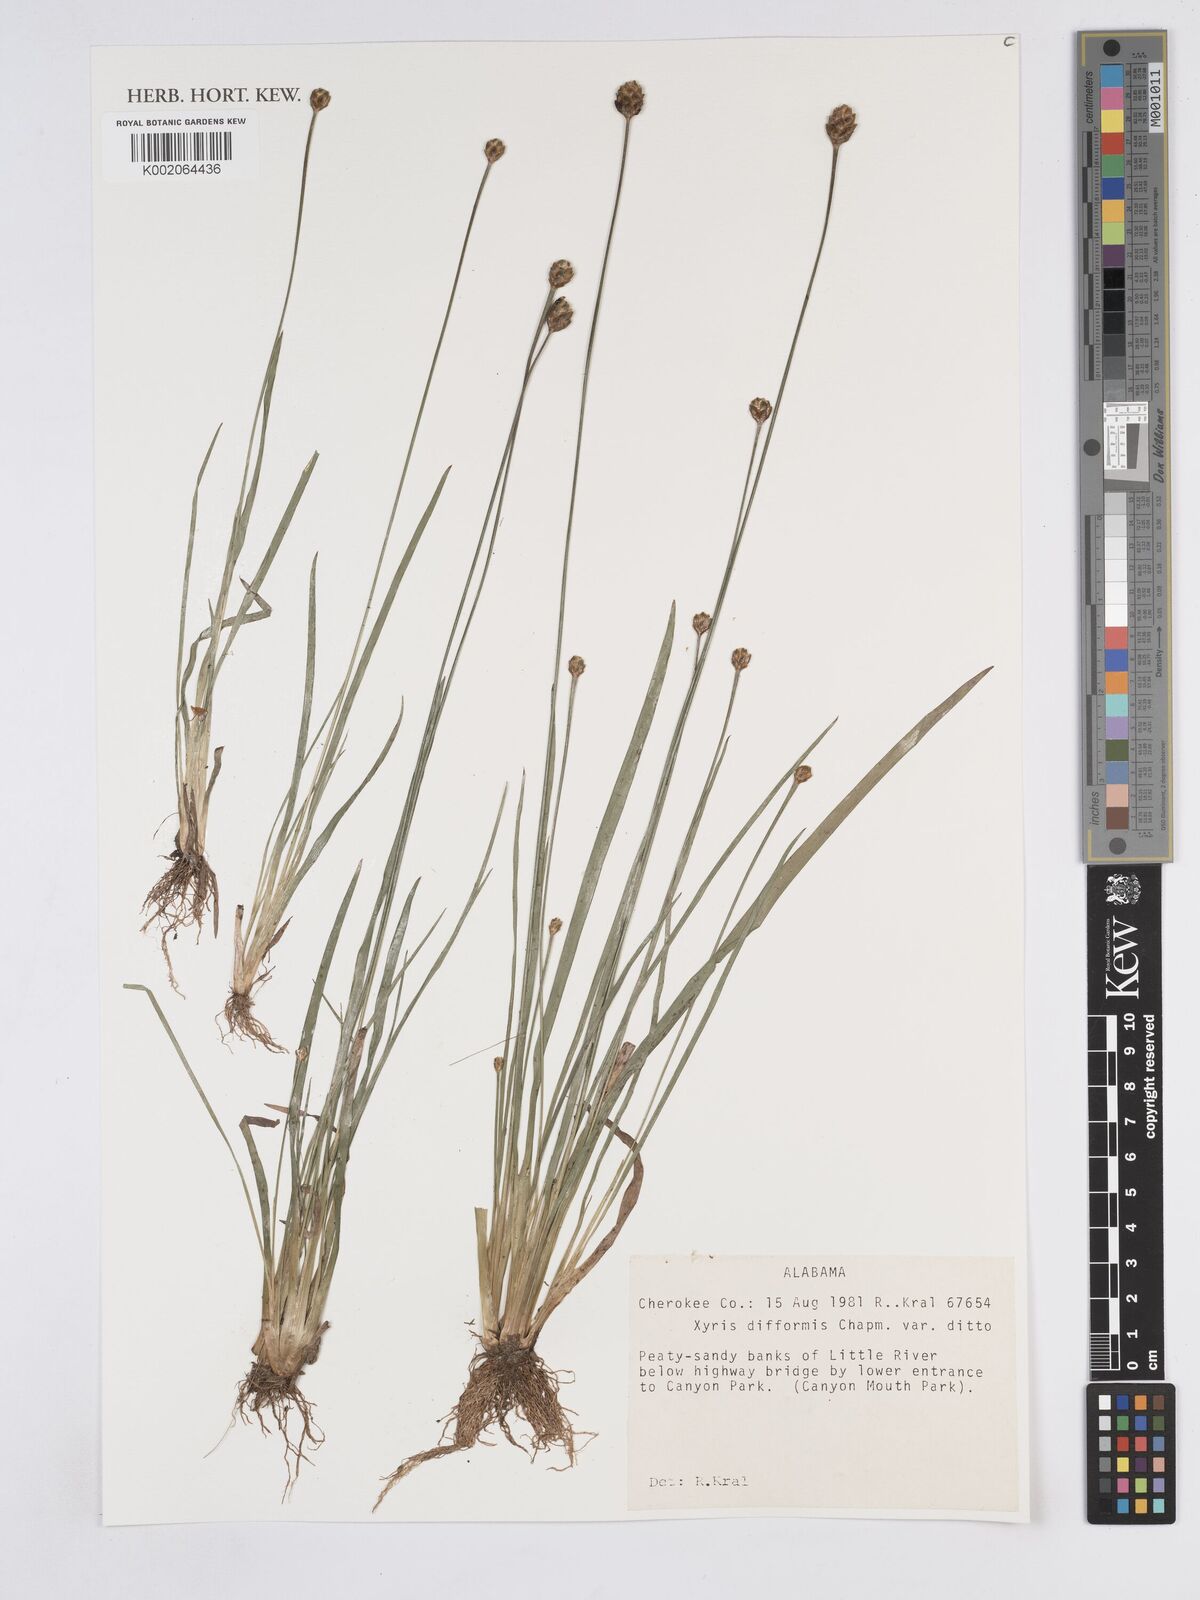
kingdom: Plantae
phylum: Tracheophyta
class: Liliopsida
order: Poales
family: Xyridaceae
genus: Xyris
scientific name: Xyris difformis
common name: Bog yellow-eyed-grass
